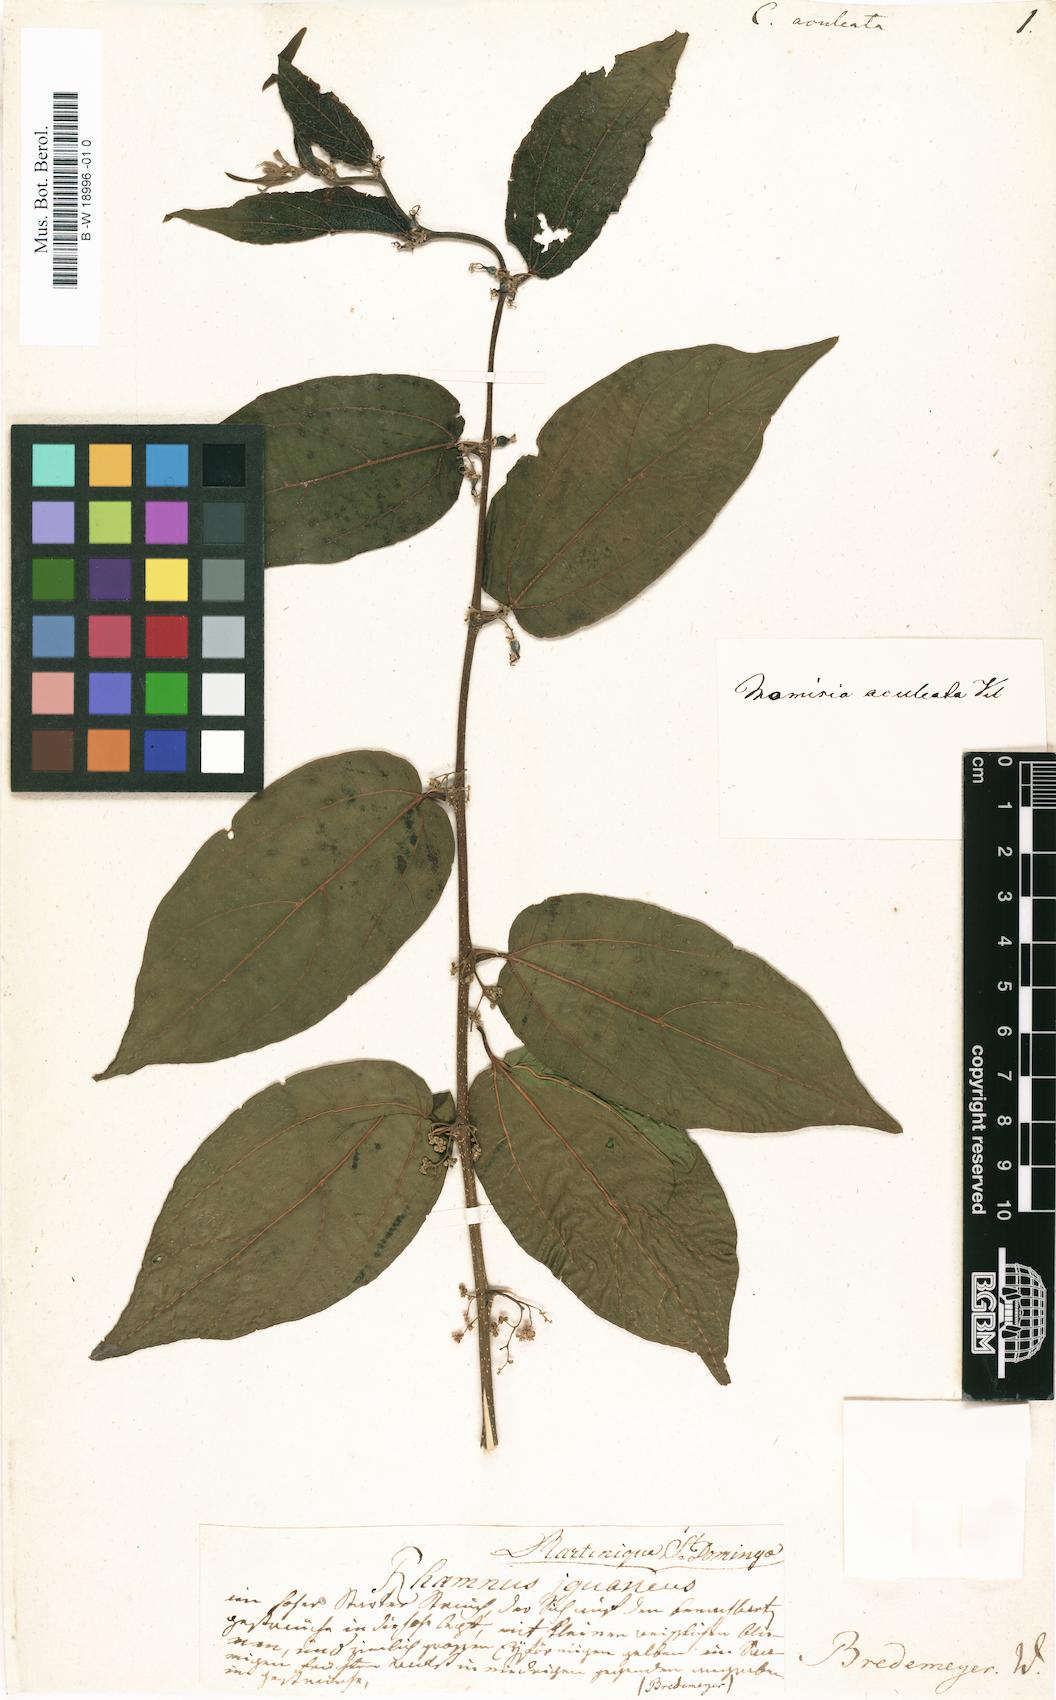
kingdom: Plantae
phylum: Tracheophyta
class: Magnoliopsida
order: Rosales
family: Cannabaceae
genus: Celtis
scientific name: Celtis iguanaea
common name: Iguana hackberry
